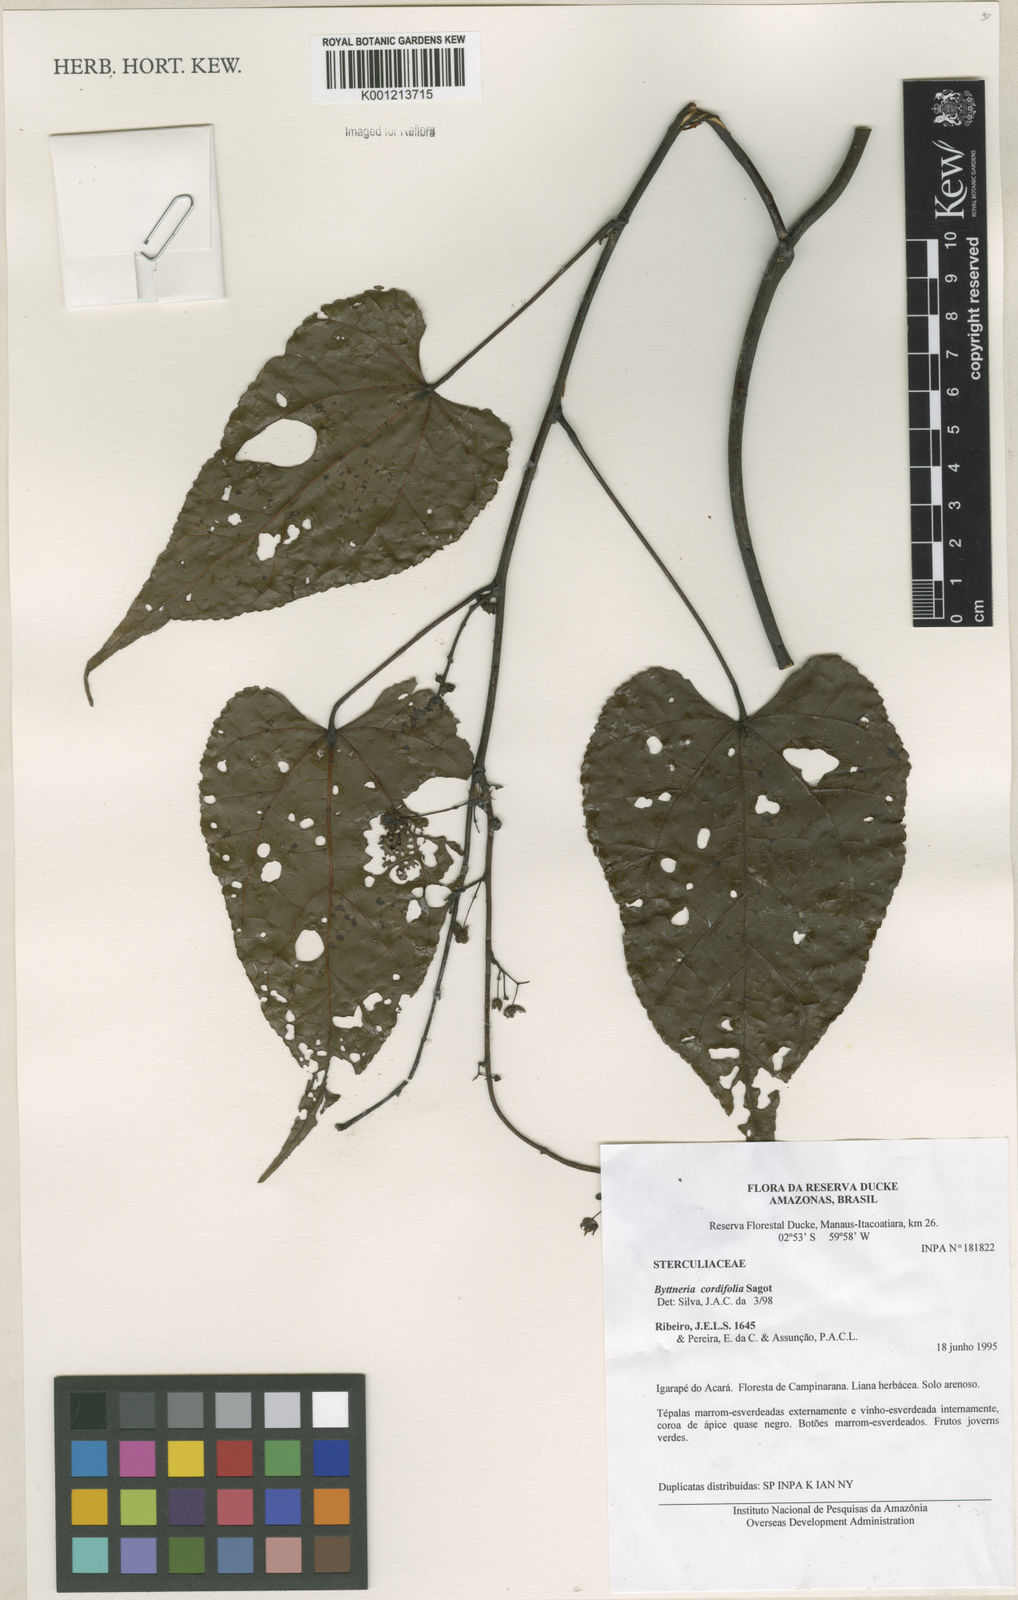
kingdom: Plantae
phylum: Tracheophyta
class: Magnoliopsida
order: Malvales
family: Malvaceae
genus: Byttneria
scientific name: Byttneria cordifolia
